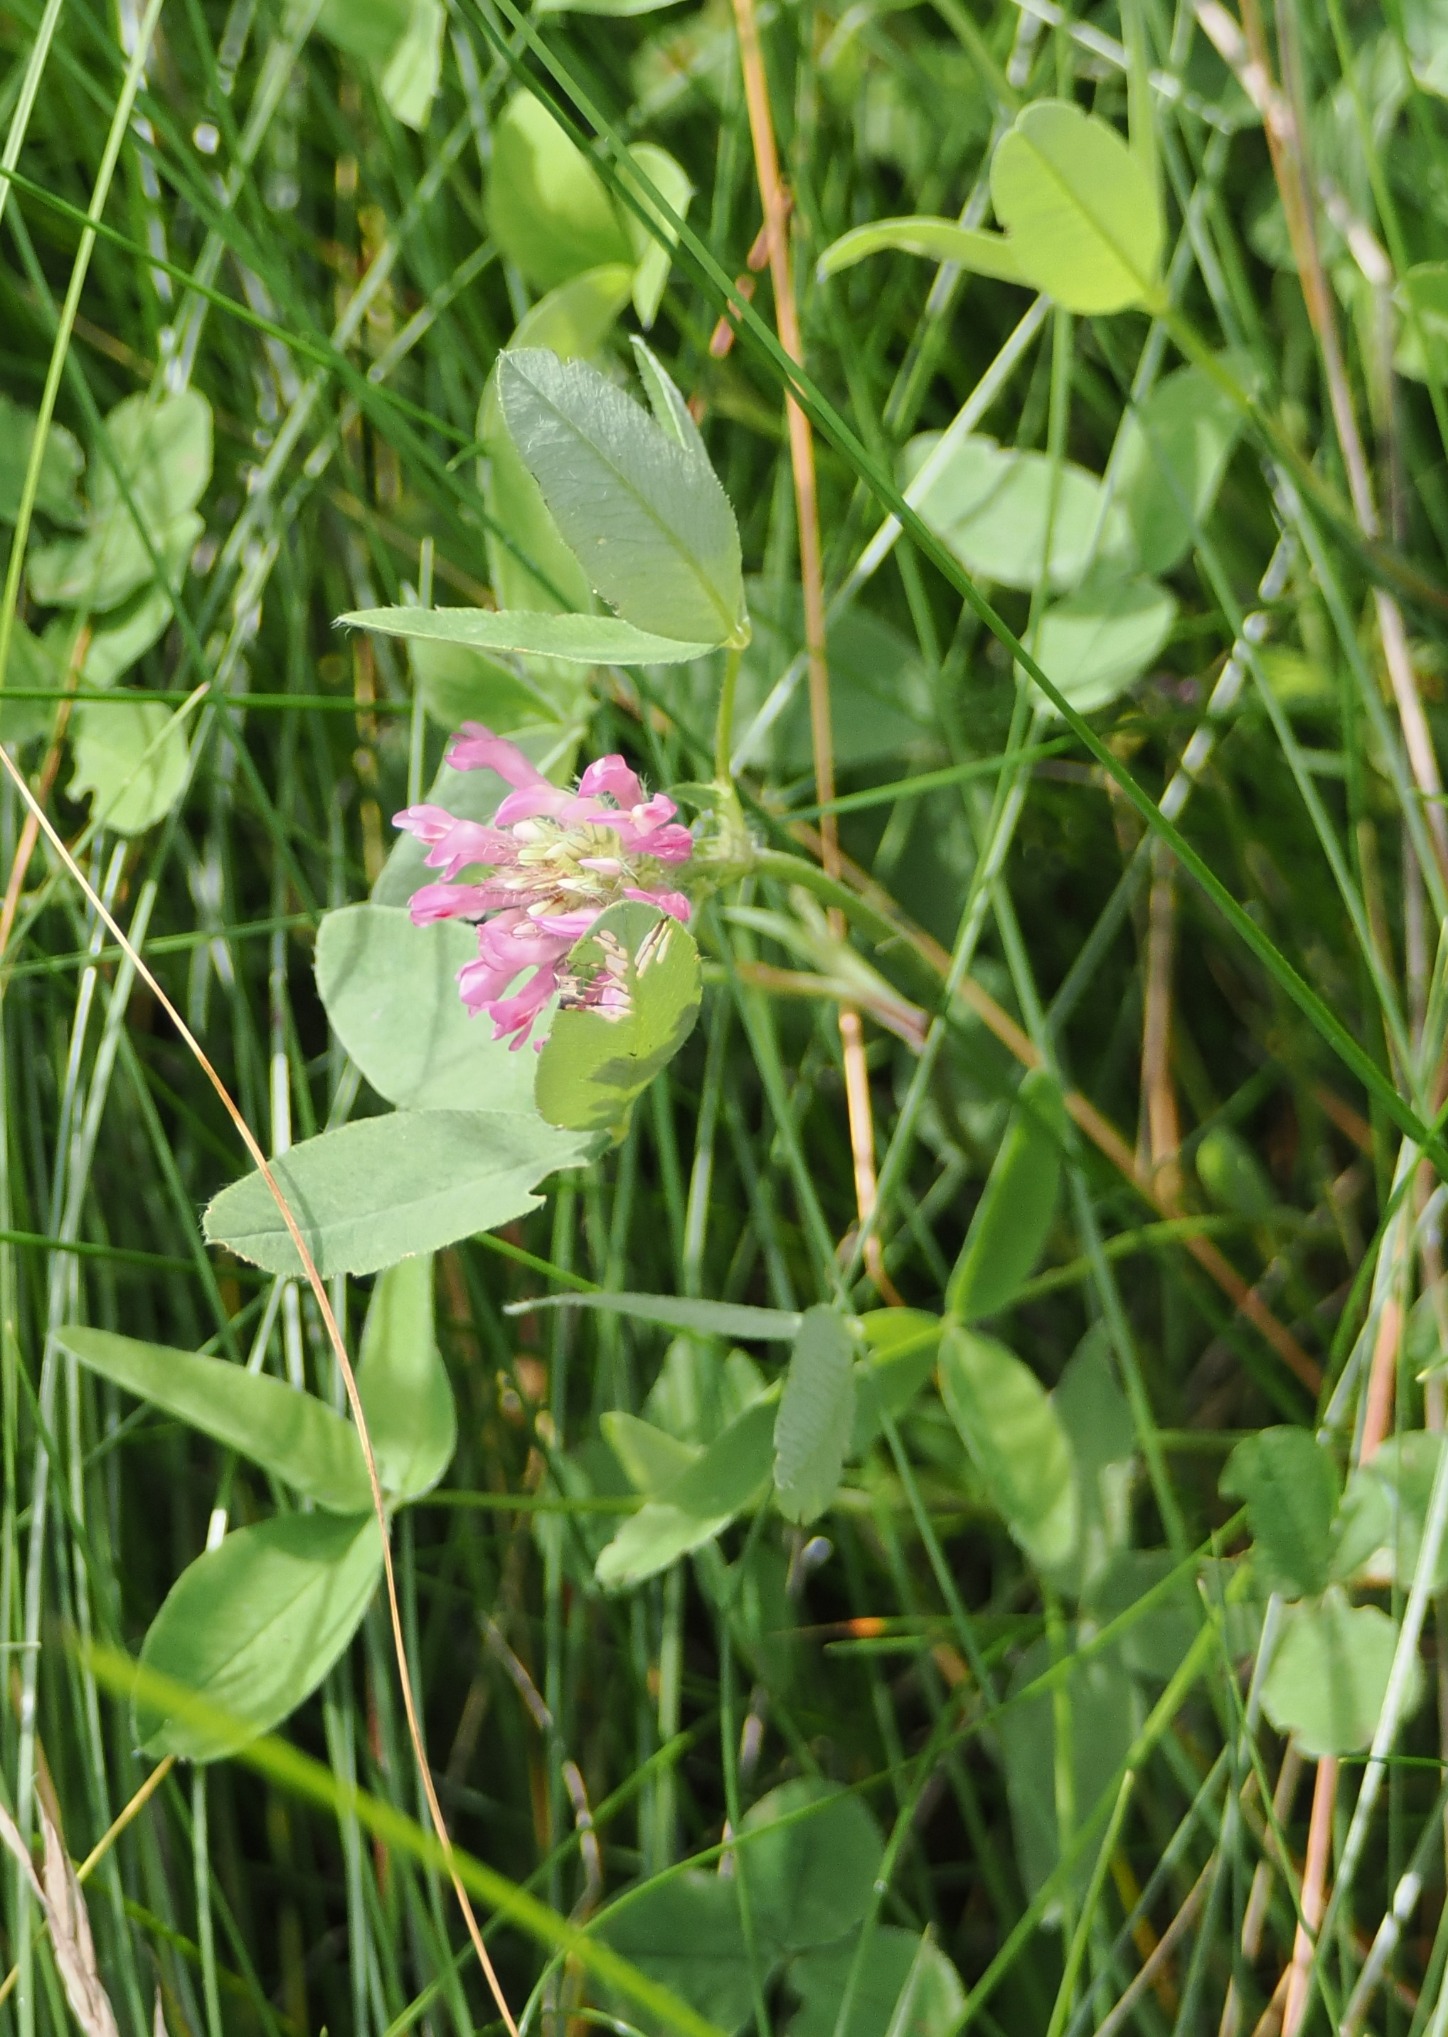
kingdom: Plantae
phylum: Tracheophyta
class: Magnoliopsida
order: Fabales
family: Fabaceae
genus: Trifolium
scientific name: Trifolium pratense
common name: Rød-kløver
